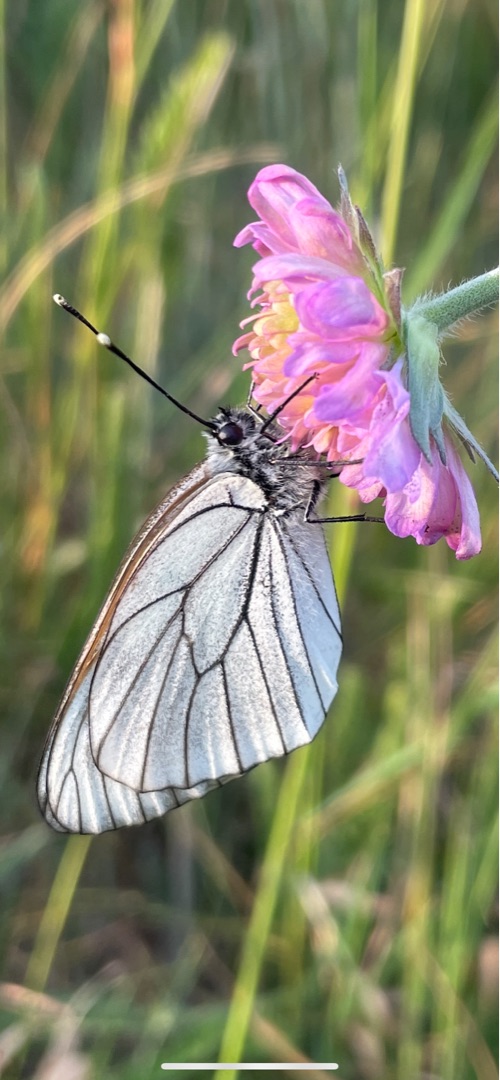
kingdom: Animalia
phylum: Arthropoda
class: Insecta
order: Lepidoptera
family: Pieridae
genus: Aporia
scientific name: Aporia crataegi
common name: Sortåret hvidvinge
